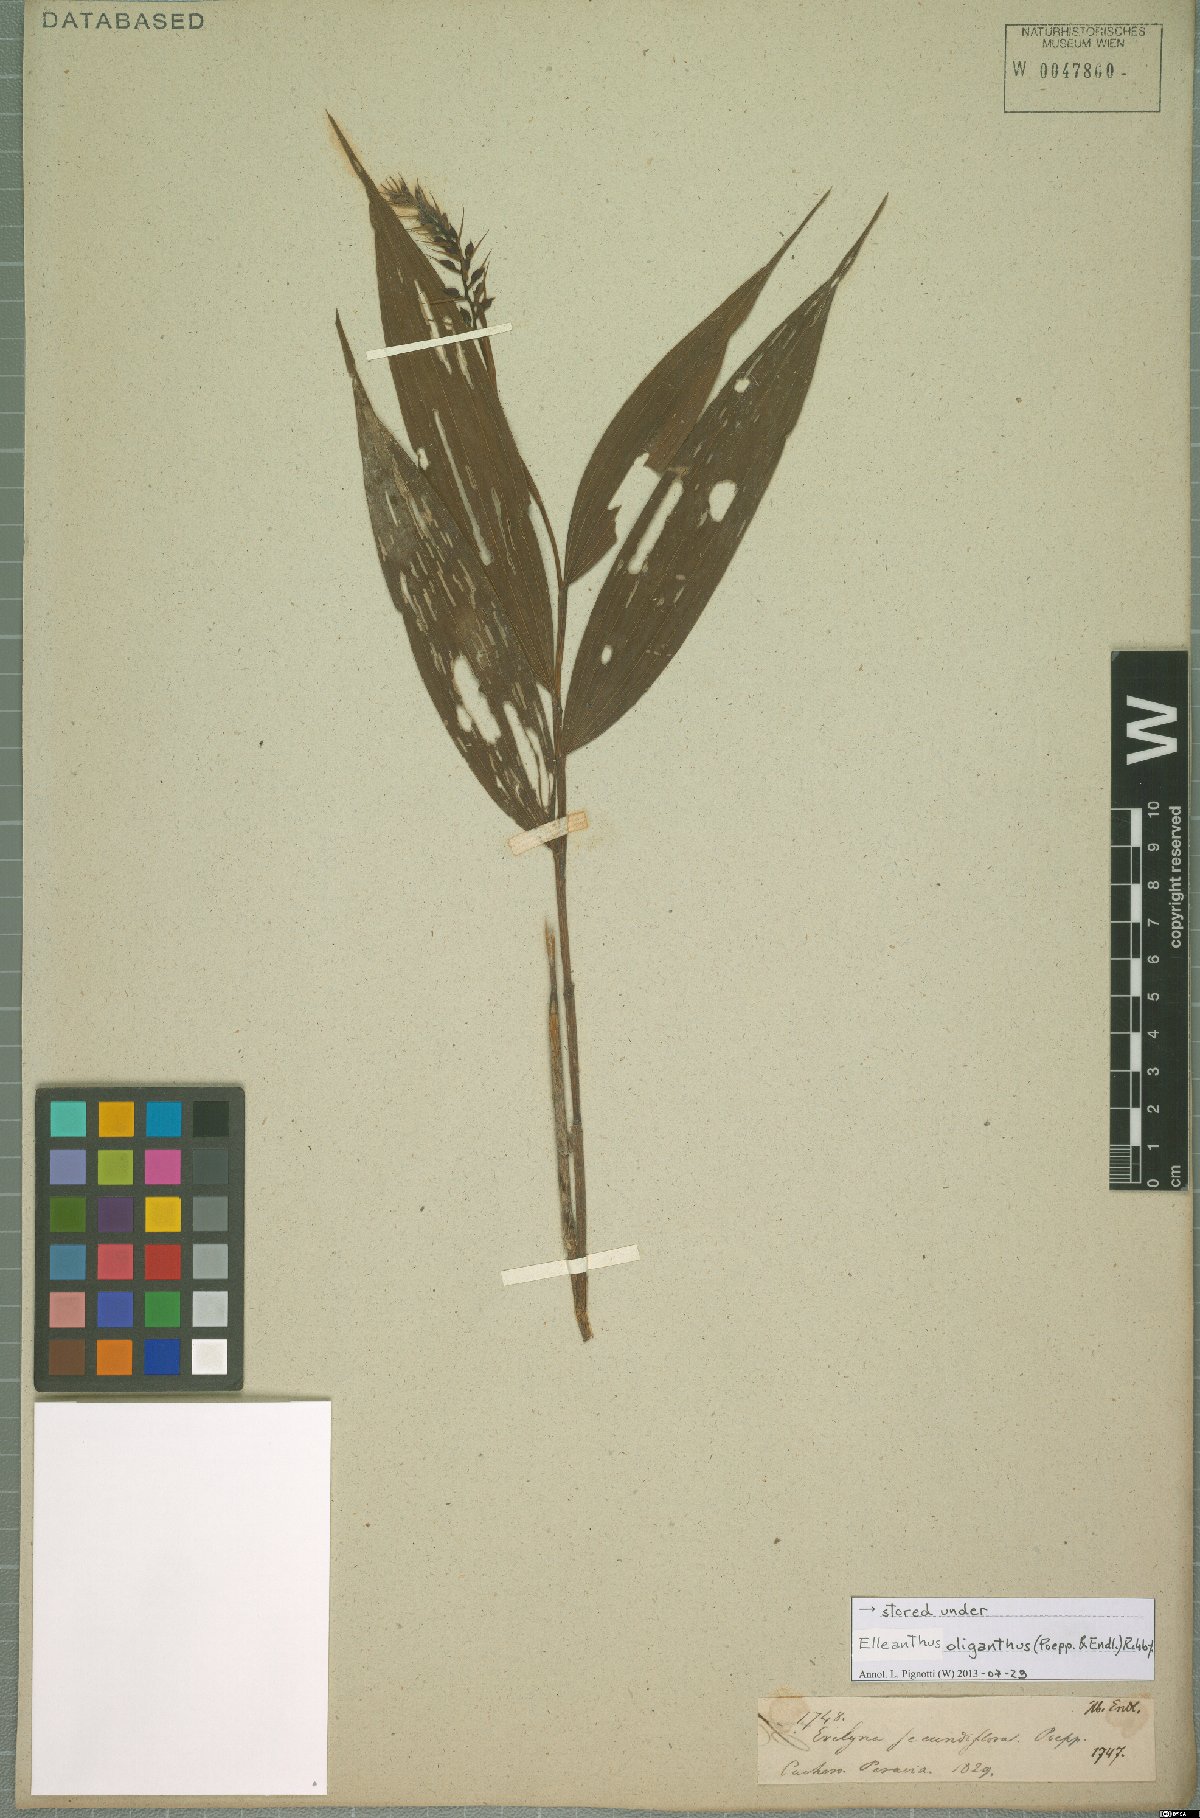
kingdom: Plantae
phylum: Tracheophyta
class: Liliopsida
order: Asparagales
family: Orchidaceae
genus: Elleanthus
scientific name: Elleanthus oliganthus
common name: Sparse blooming elleanthus
